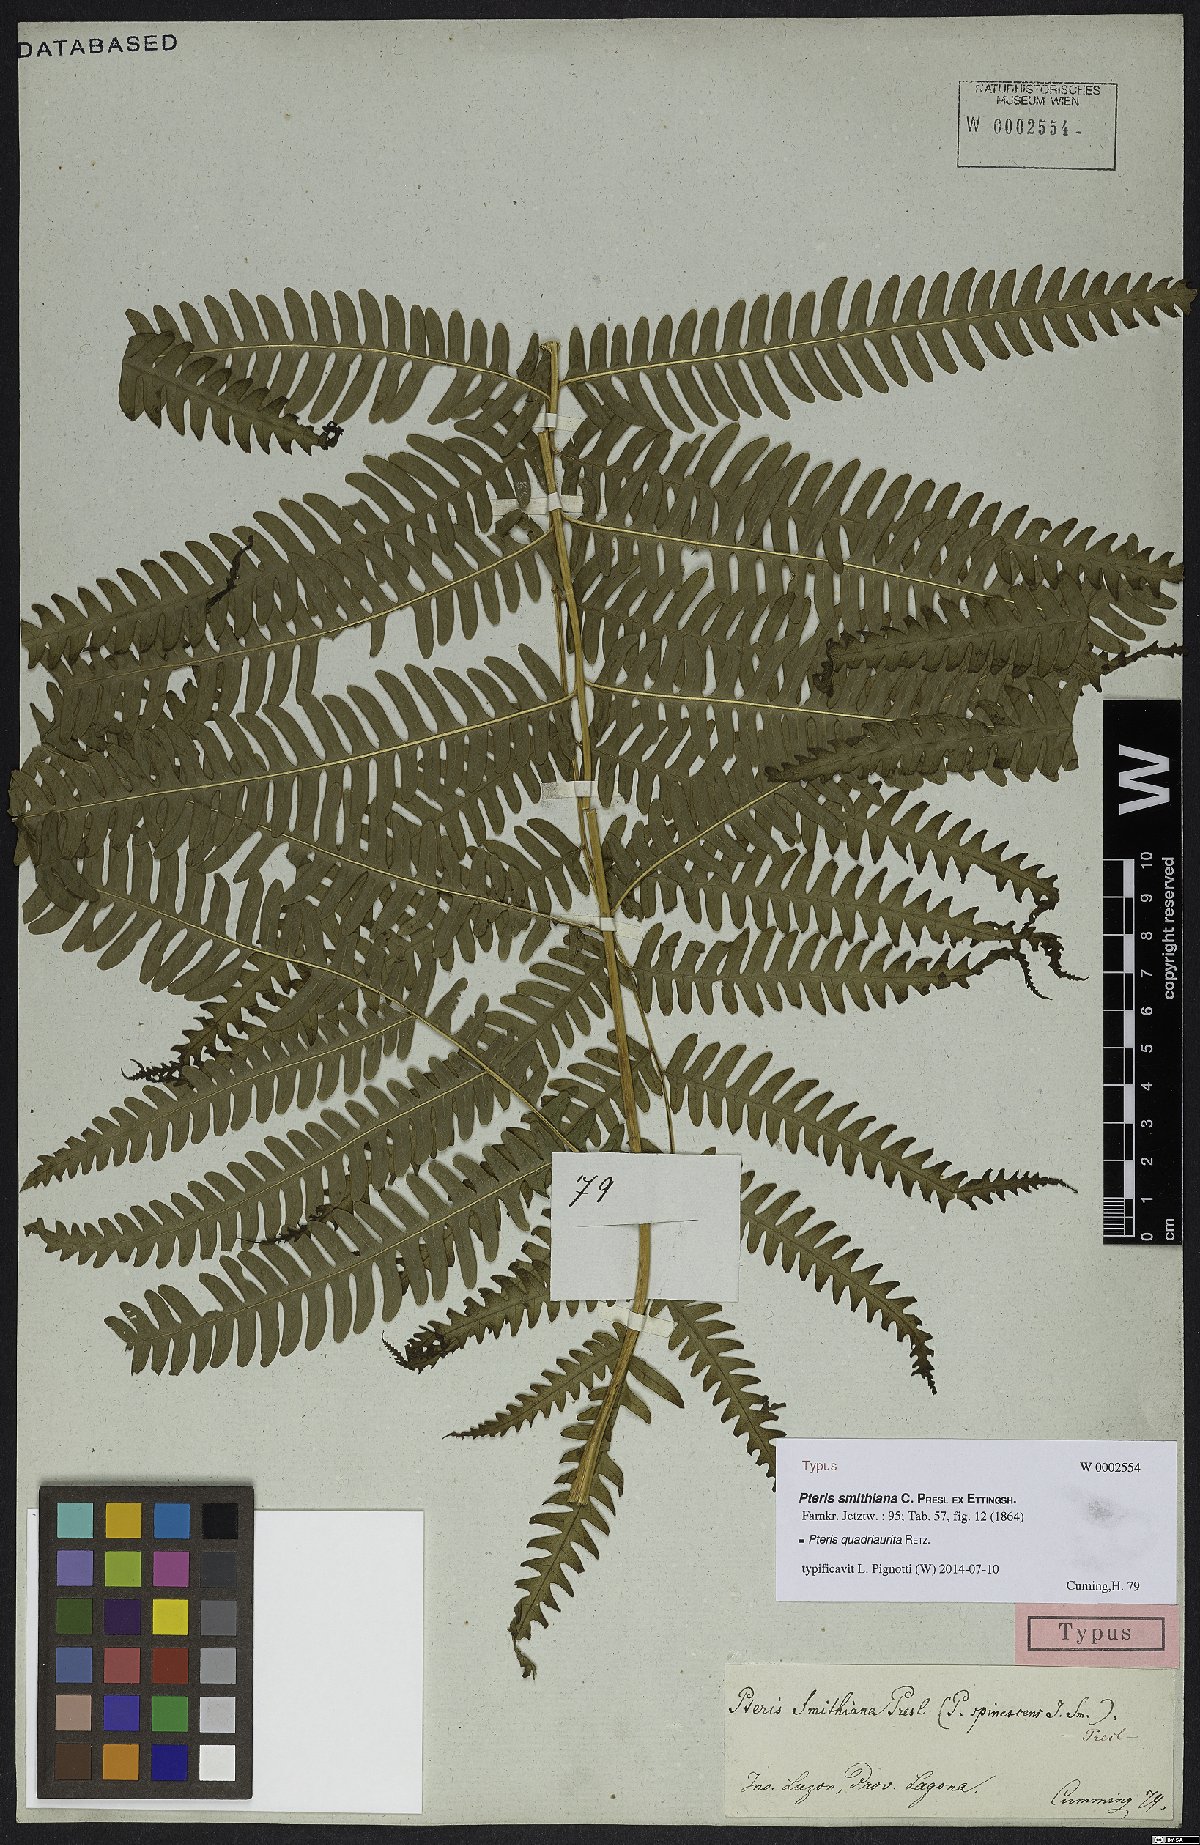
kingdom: Plantae
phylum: Tracheophyta
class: Polypodiopsida
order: Polypodiales
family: Pteridaceae
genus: Pteris
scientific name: Pteris quadriaurita
